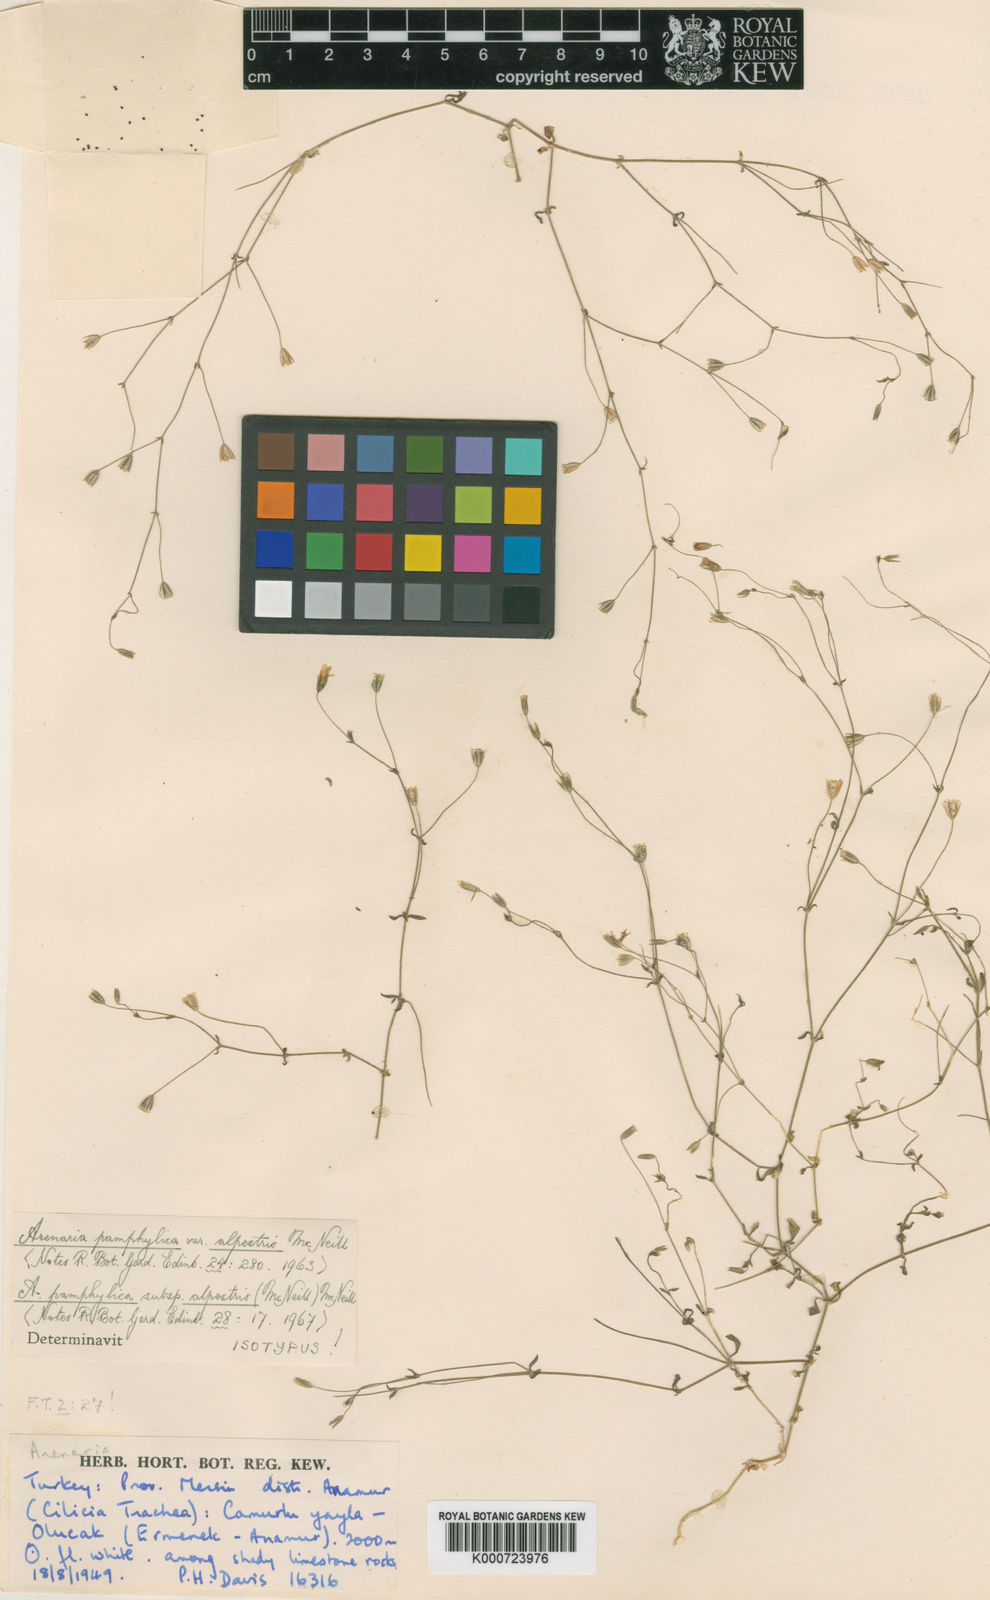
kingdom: Plantae
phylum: Tracheophyta
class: Magnoliopsida
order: Caryophyllales
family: Caryophyllaceae
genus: Arenaria
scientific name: Arenaria pamphylica
